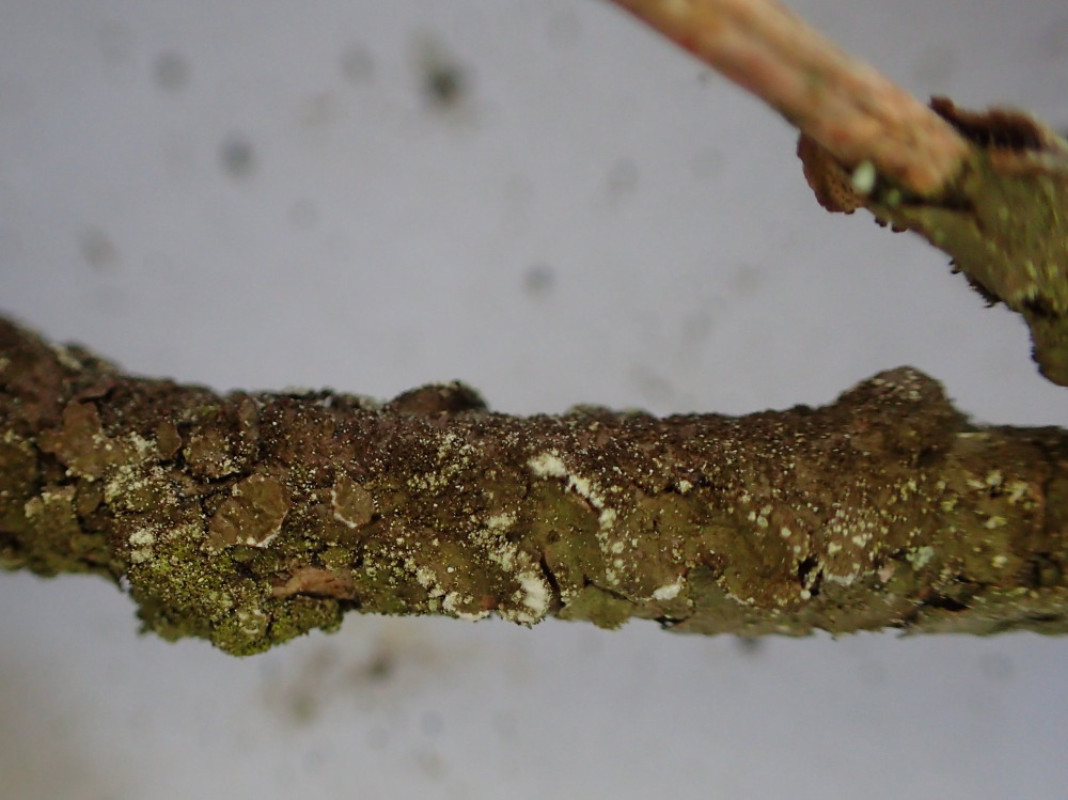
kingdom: Fungi
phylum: Ascomycota
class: Lecanoromycetes
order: Lecanorales
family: Parmeliaceae
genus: Melanelixia
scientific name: Melanelixia subaurifera
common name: guldpudret skållav
